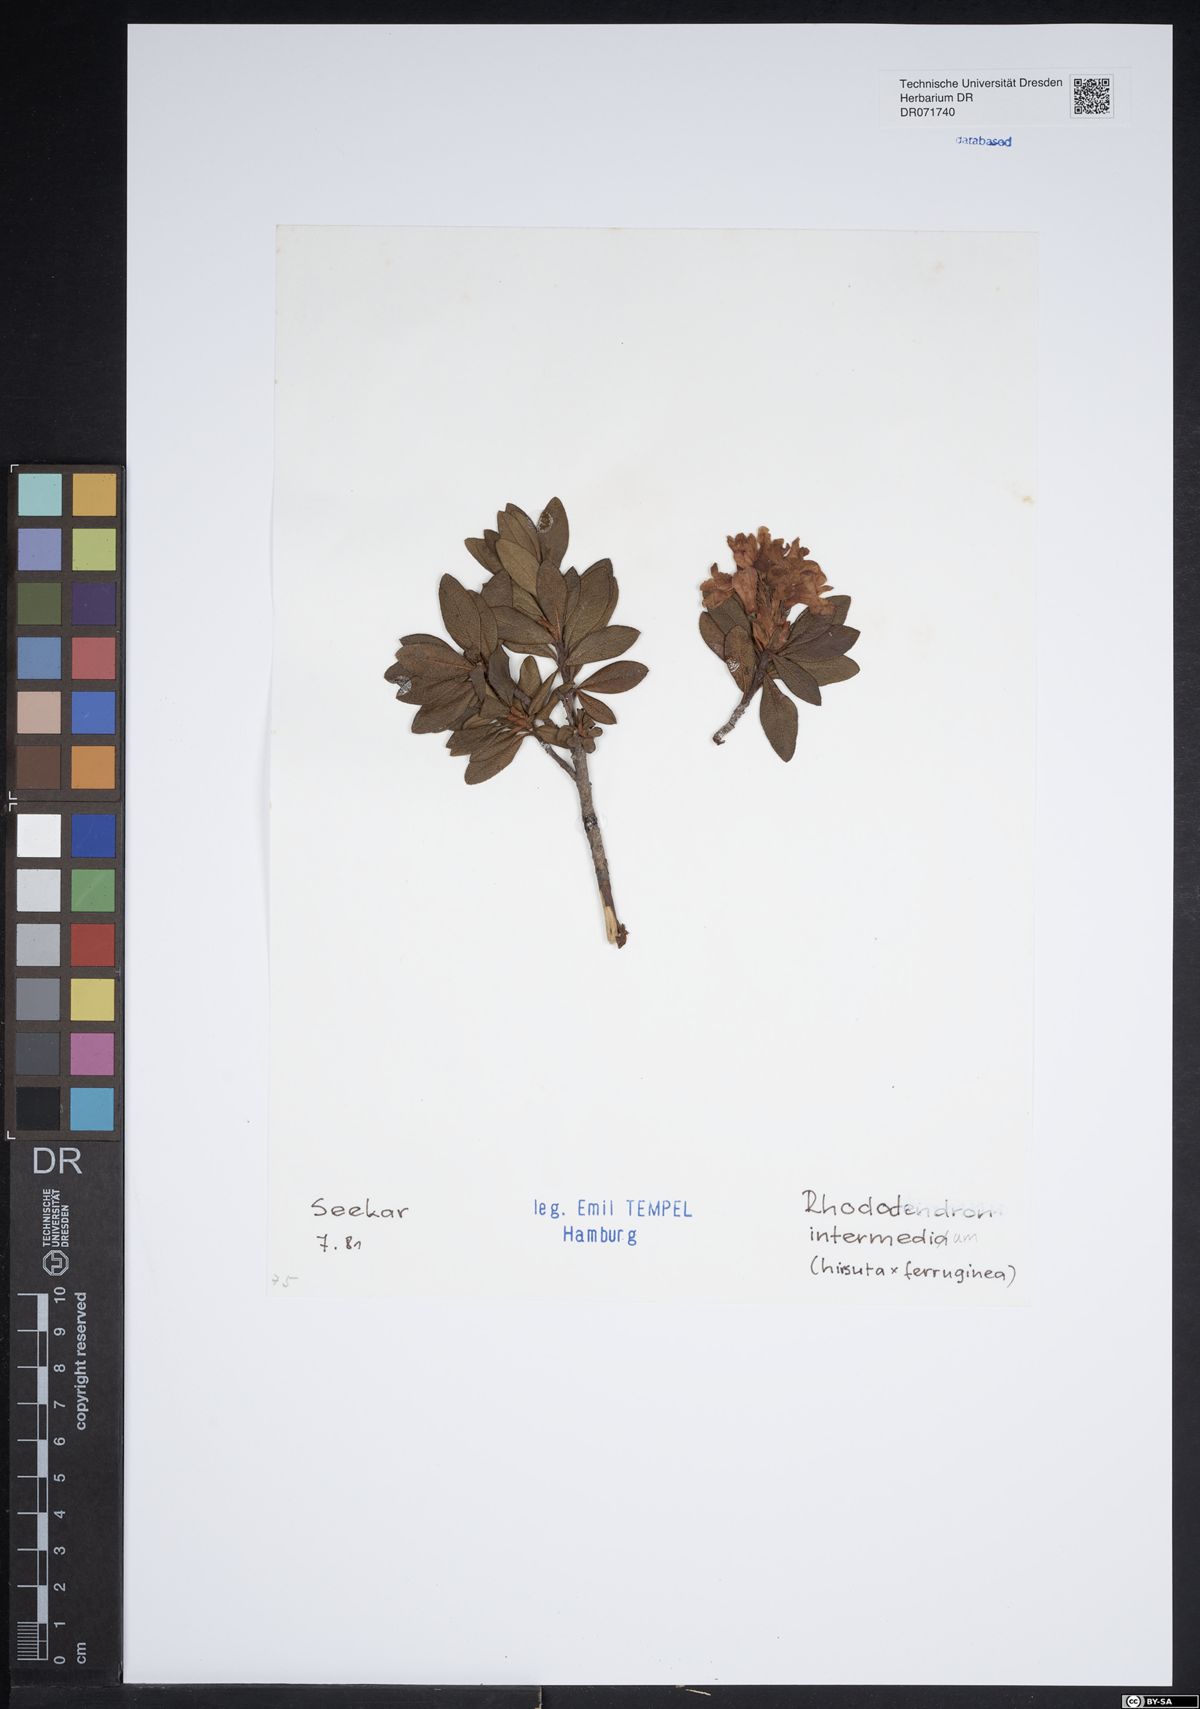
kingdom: Plantae
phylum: Tracheophyta
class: Magnoliopsida
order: Ericales
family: Ericaceae
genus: Rhododendron
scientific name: Rhododendron intermedium
